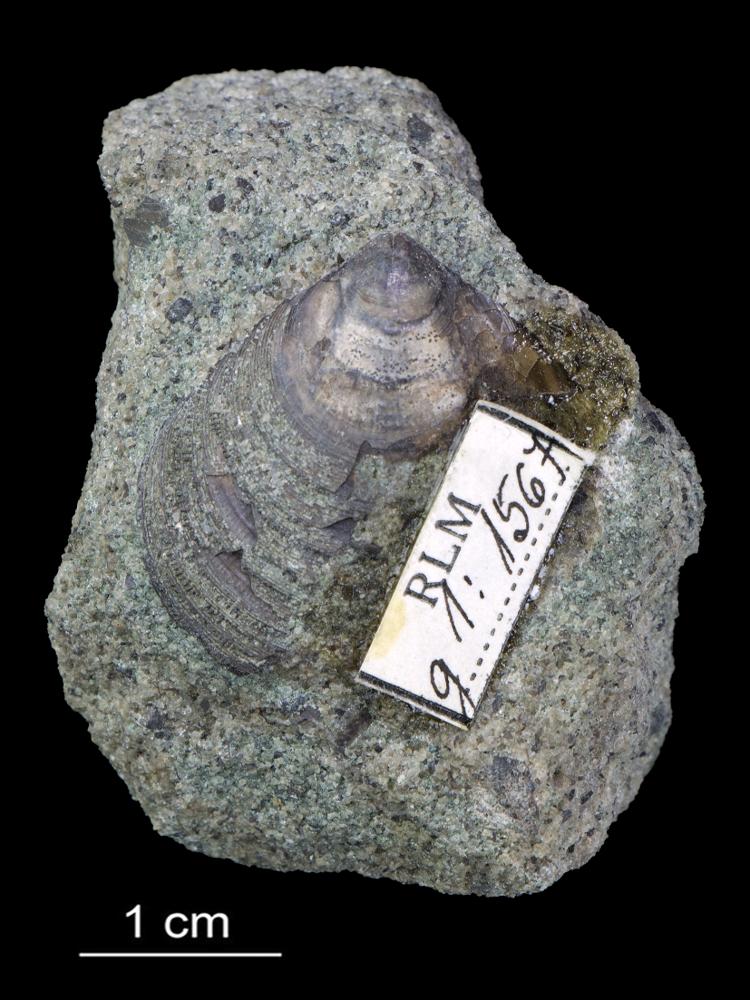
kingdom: Animalia
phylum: Brachiopoda
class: Lingulata
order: Lingulida
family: Zhanatellidae
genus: Thysanotos
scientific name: Thysanotos
